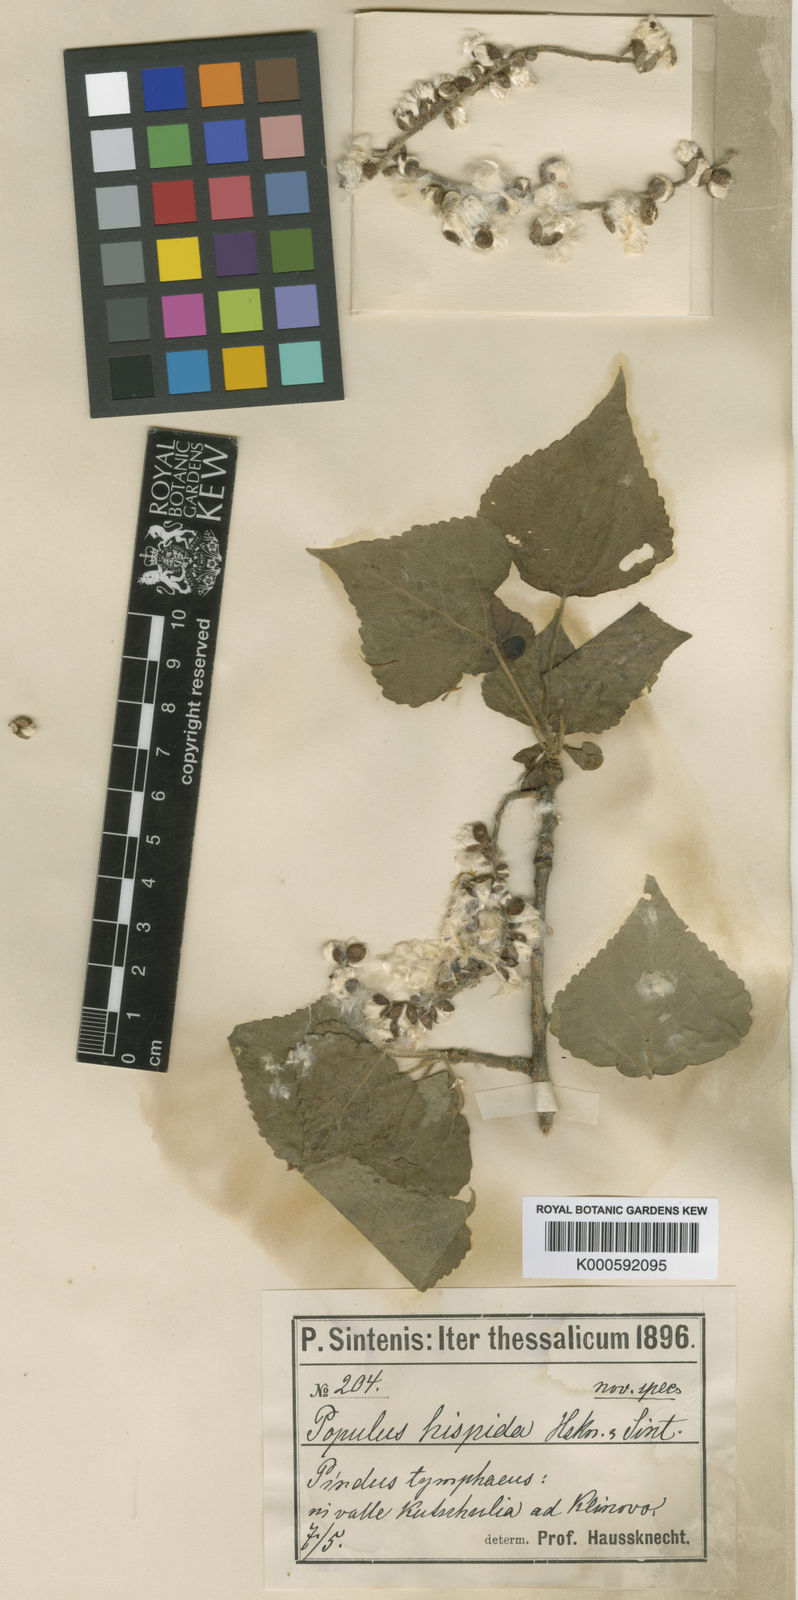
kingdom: Plantae
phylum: Tracheophyta
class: Magnoliopsida
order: Malpighiales
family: Salicaceae
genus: Populus
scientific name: Populus tremuloides
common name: Quaking aspen
